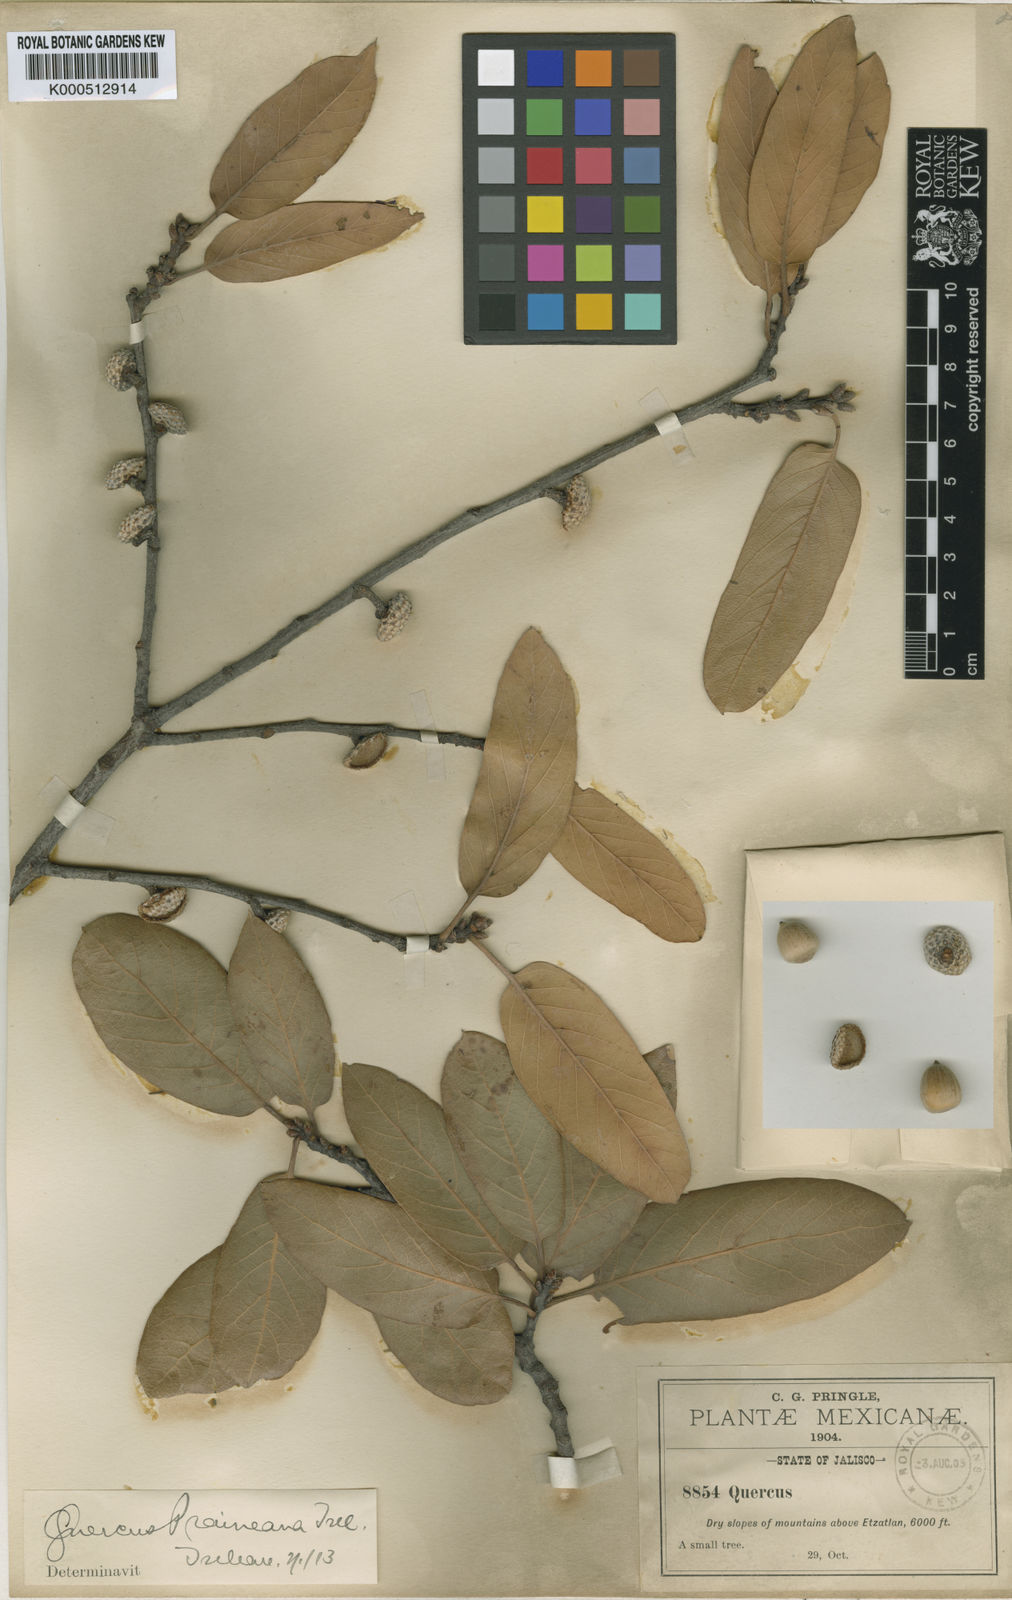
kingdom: Plantae
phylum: Tracheophyta
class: Magnoliopsida
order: Fagales
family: Fagaceae
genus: Quercus
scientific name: Quercus
